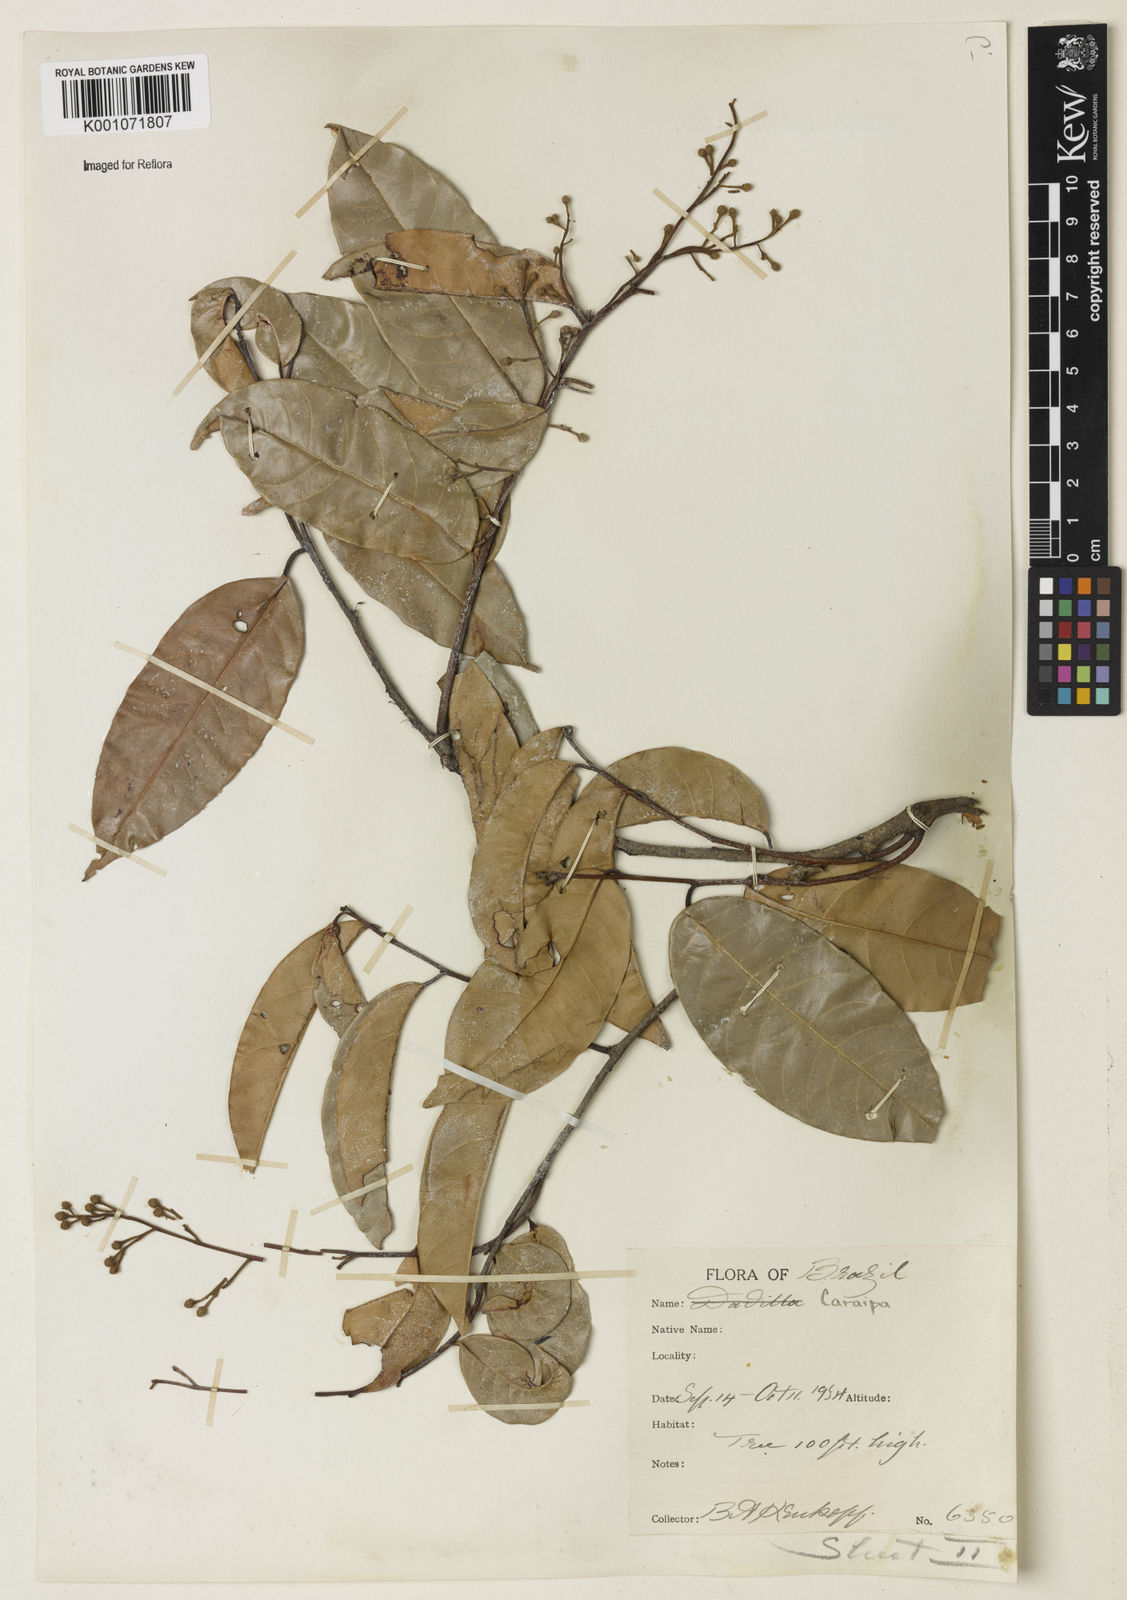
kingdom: Plantae
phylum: Tracheophyta
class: Magnoliopsida
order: Malpighiales
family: Calophyllaceae
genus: Caraipa
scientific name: Caraipa
